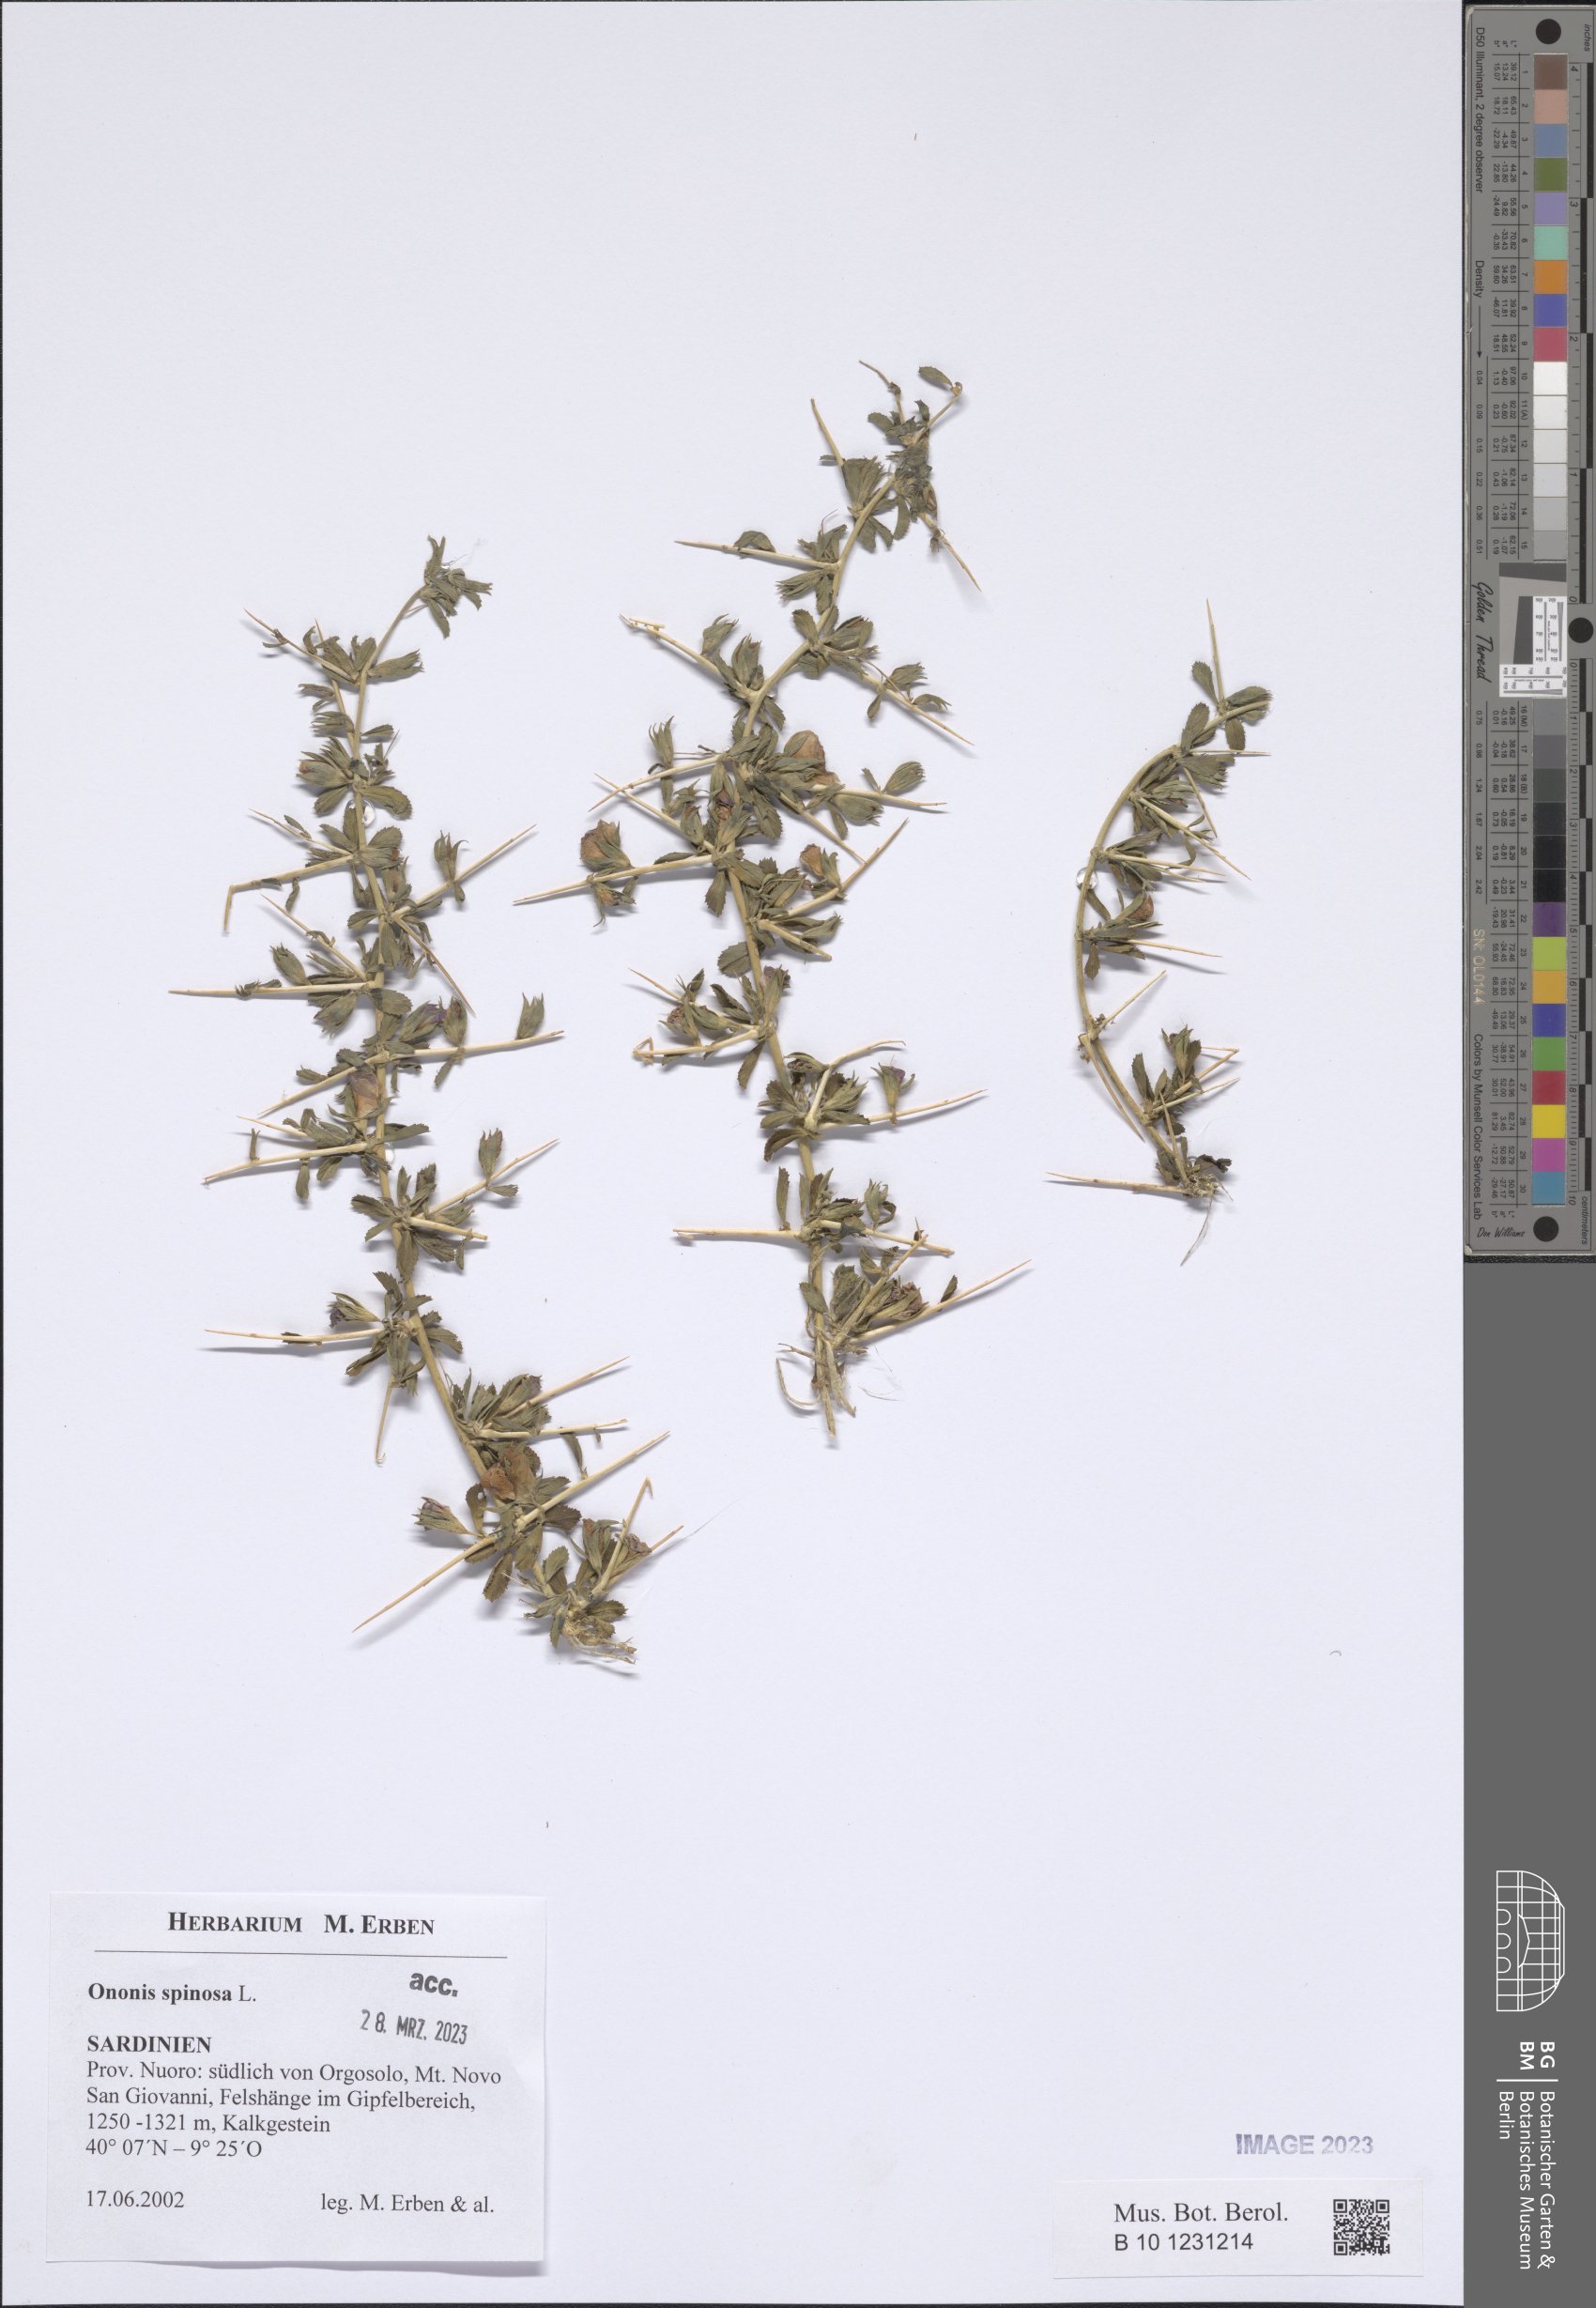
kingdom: Plantae
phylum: Tracheophyta
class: Magnoliopsida
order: Fabales
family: Fabaceae
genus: Ononis
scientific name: Ononis spinosa
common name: Spiny restharrow
